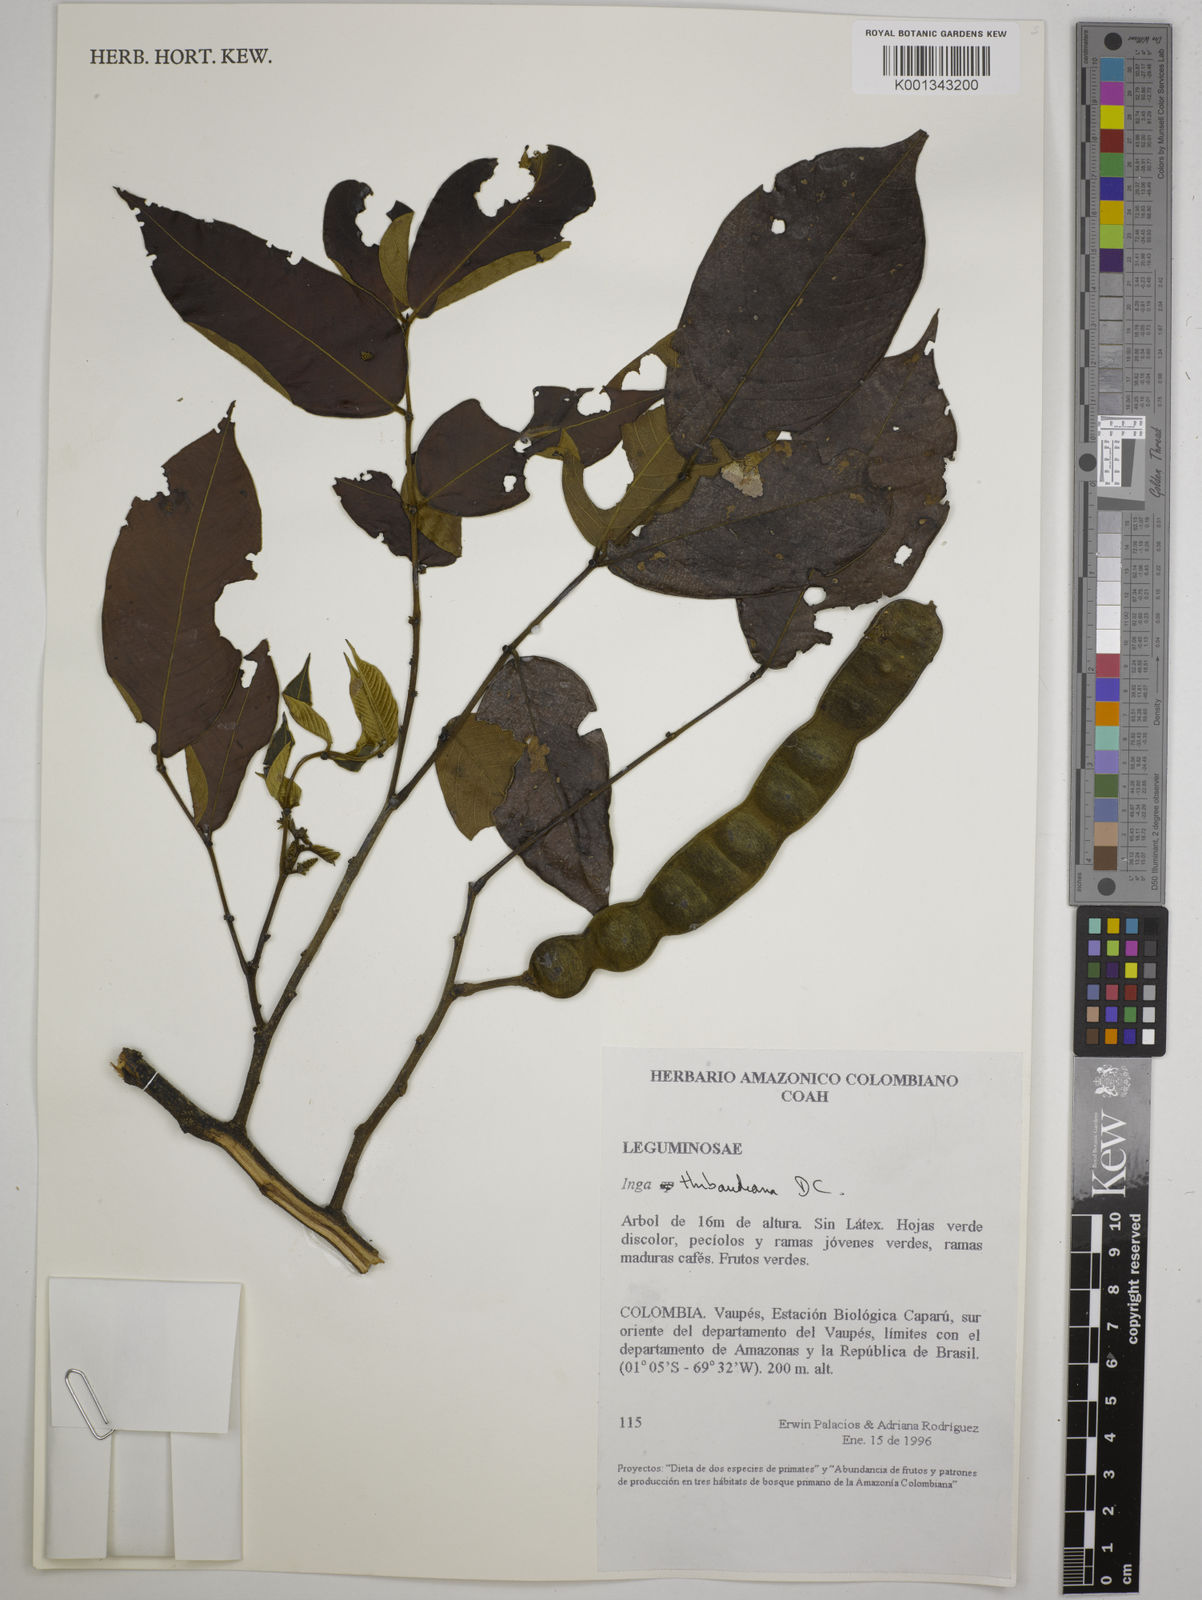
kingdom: Plantae
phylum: Tracheophyta
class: Magnoliopsida
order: Fabales
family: Fabaceae
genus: Inga
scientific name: Inga thibaudiana
